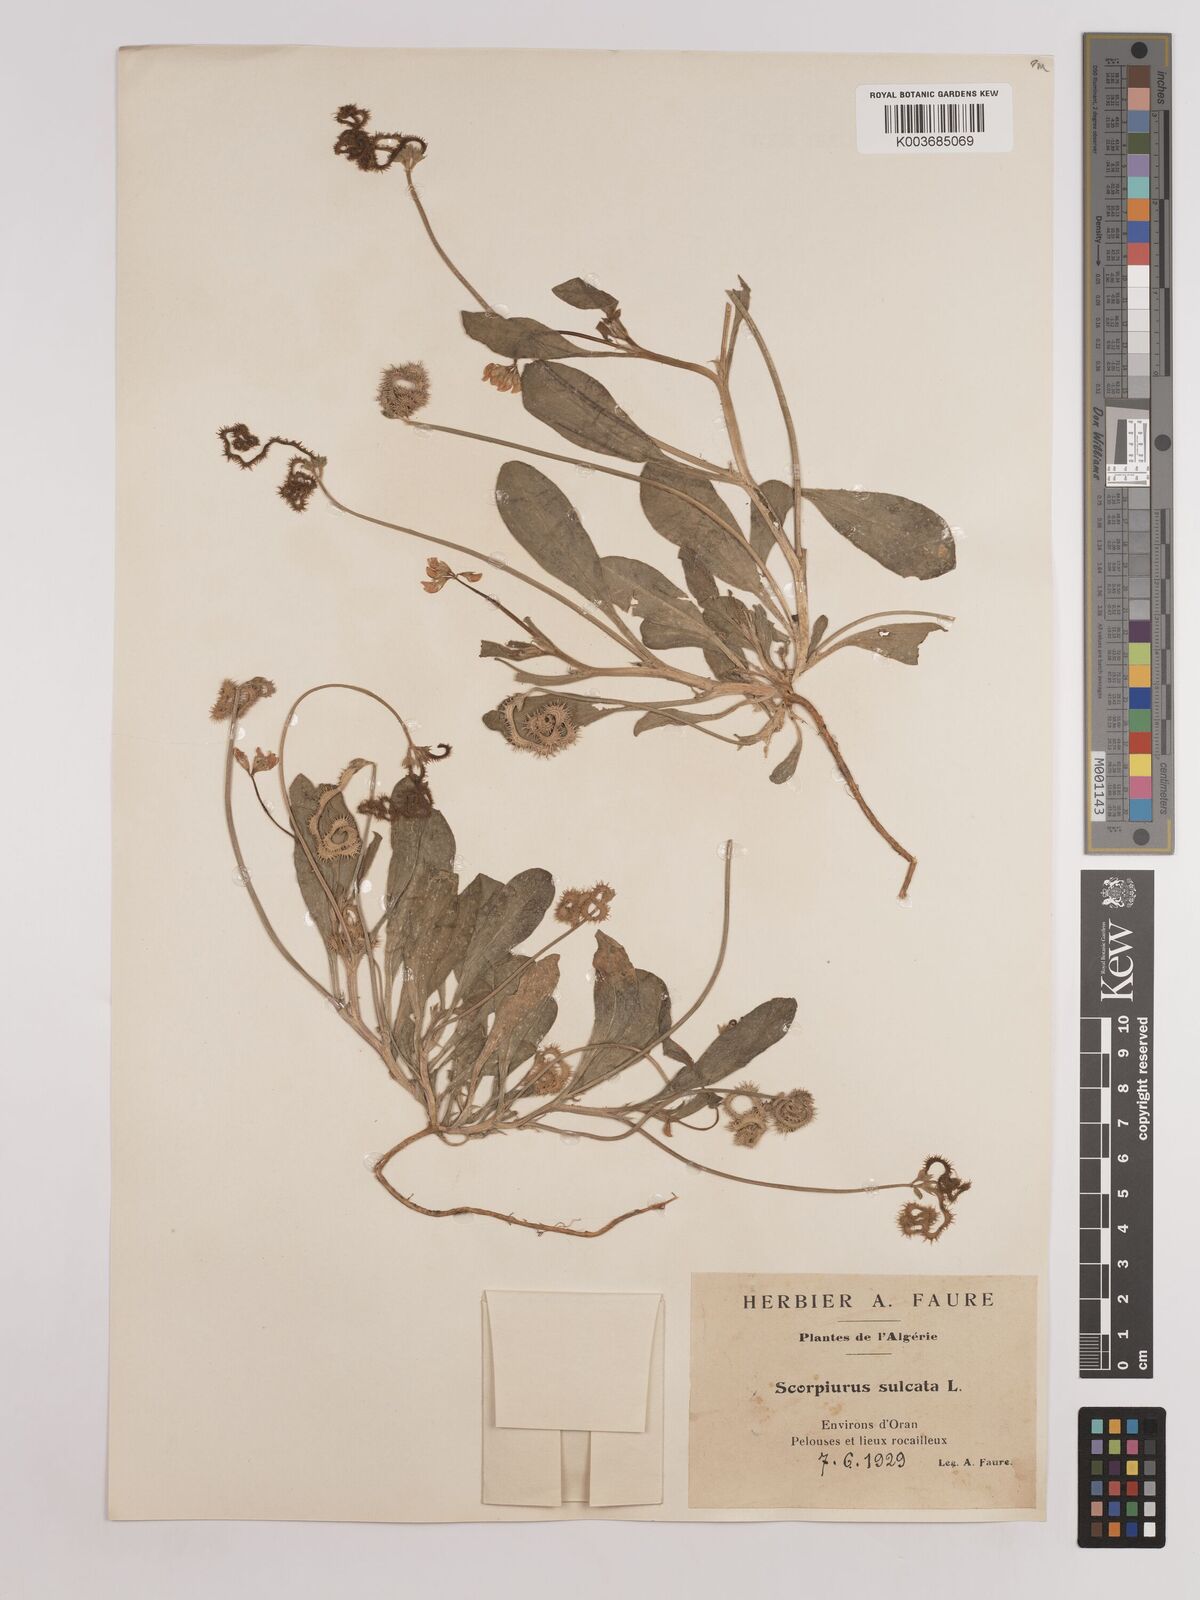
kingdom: Plantae
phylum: Tracheophyta
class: Magnoliopsida
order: Fabales
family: Fabaceae
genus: Scorpiurus
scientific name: Scorpiurus muricatus
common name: Caterpillar-plant
